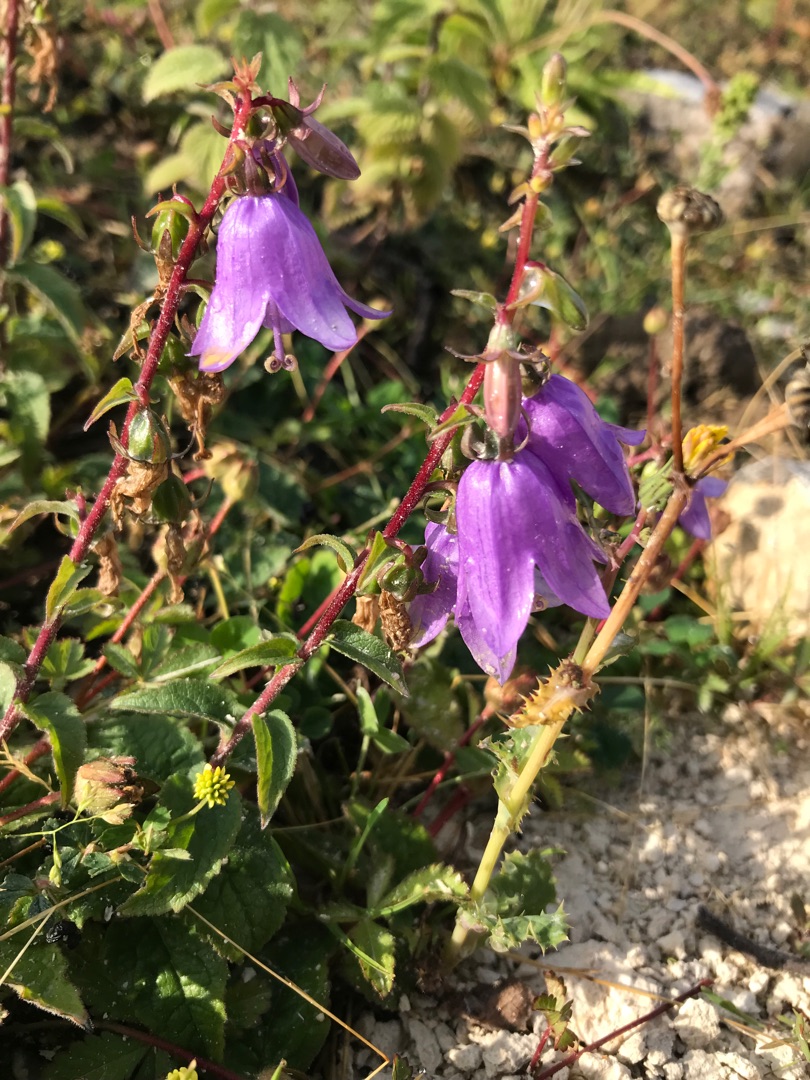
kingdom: Plantae
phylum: Tracheophyta
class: Magnoliopsida
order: Asterales
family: Campanulaceae
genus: Campanula
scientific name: Campanula rapunculoides
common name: Ensidig klokke
